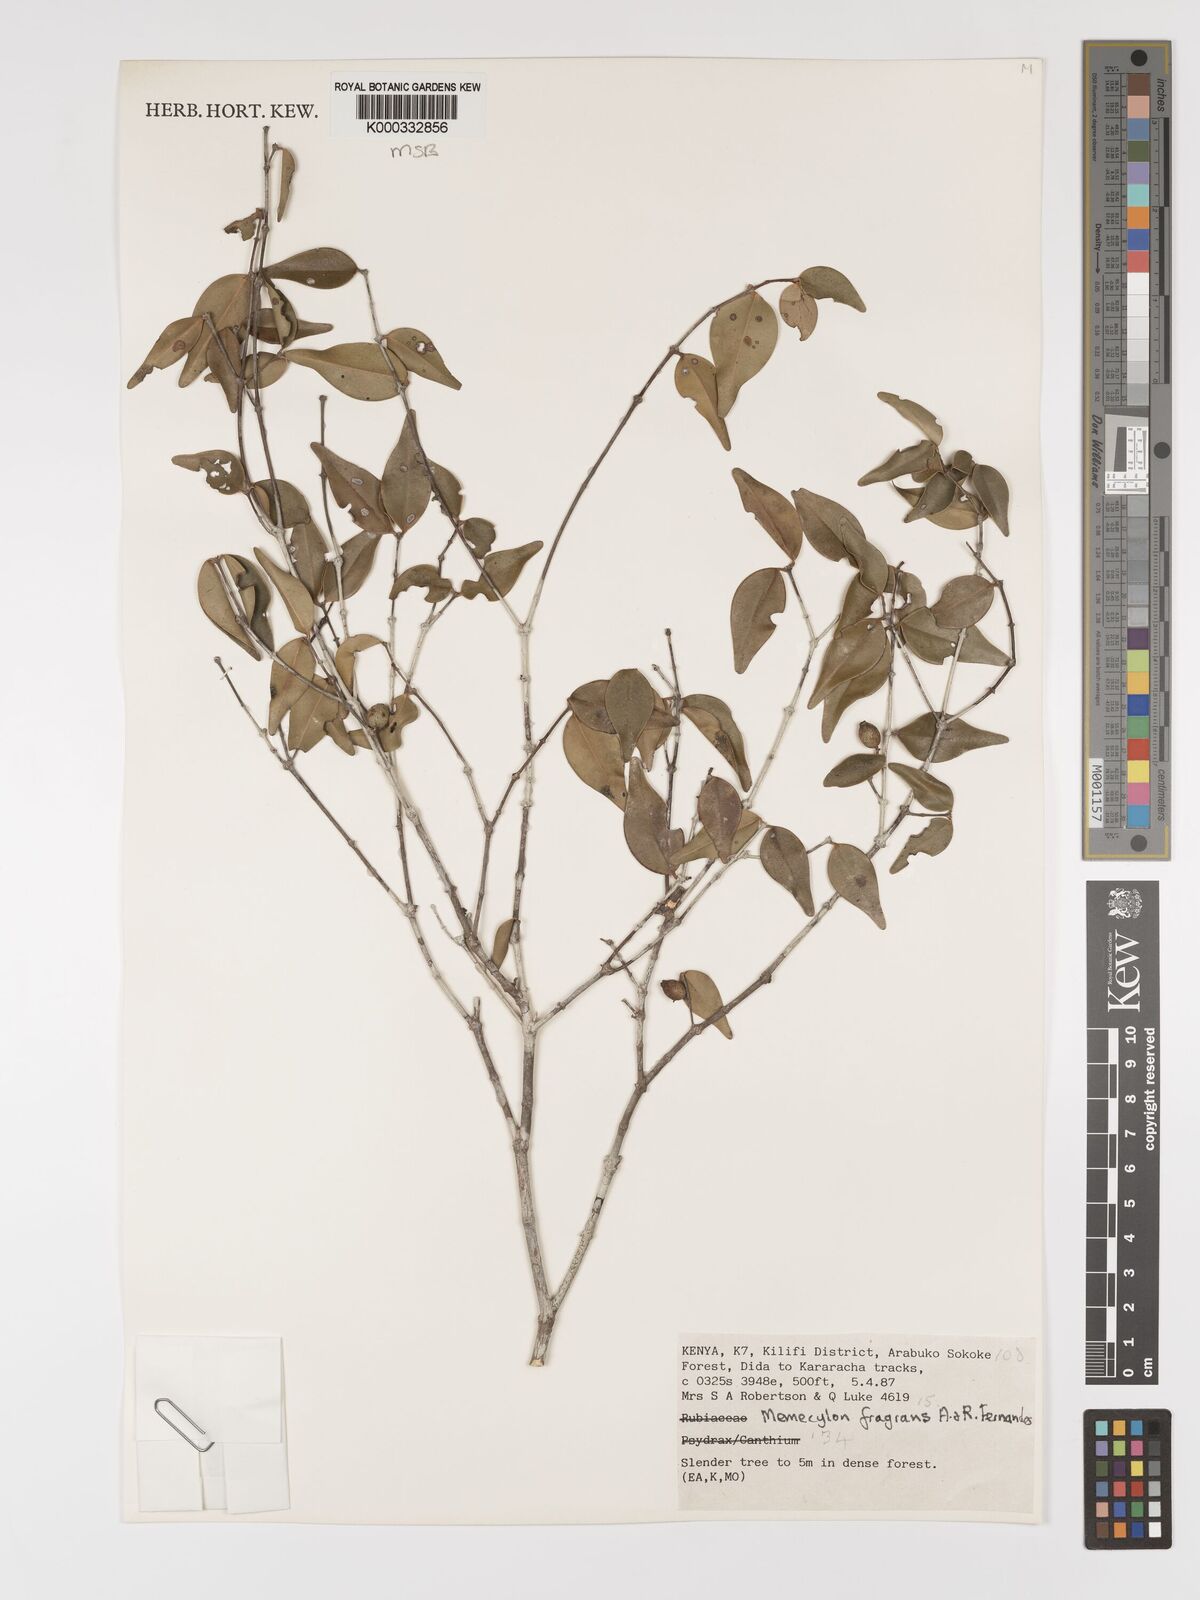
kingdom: Plantae
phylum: Tracheophyta
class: Magnoliopsida
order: Myrtales
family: Melastomataceae
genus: Memecylon
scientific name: Memecylon fragrans
